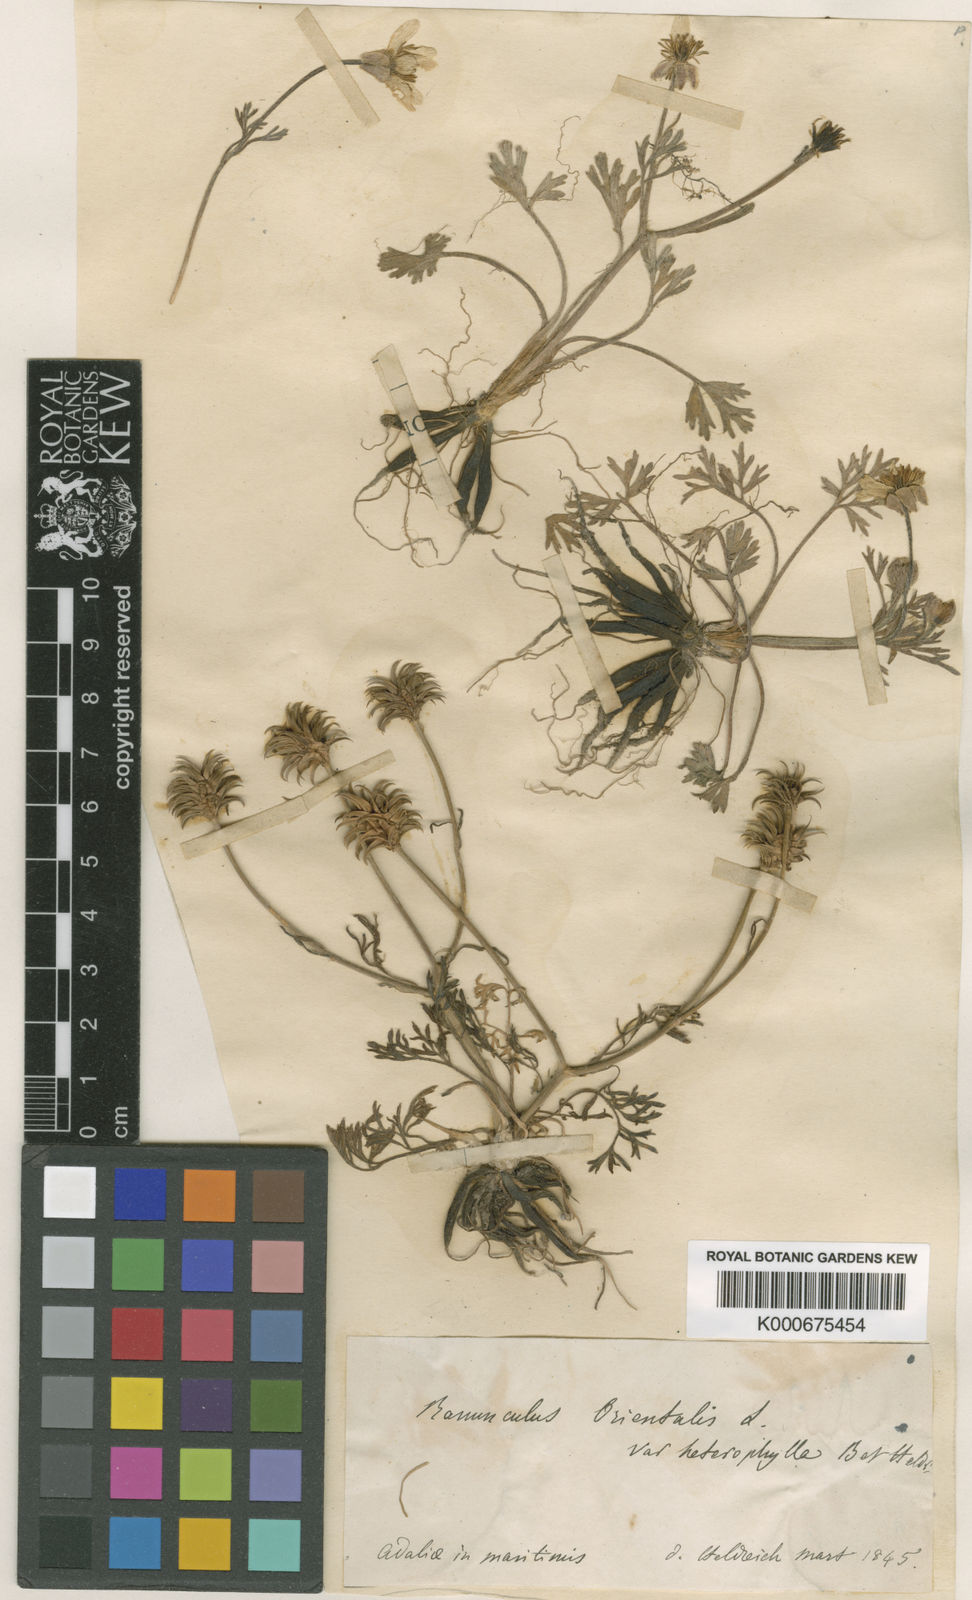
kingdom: Plantae
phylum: Tracheophyta
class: Magnoliopsida
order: Ranunculales
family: Ranunculaceae
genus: Ranunculus
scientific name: Ranunculus isthmicus
